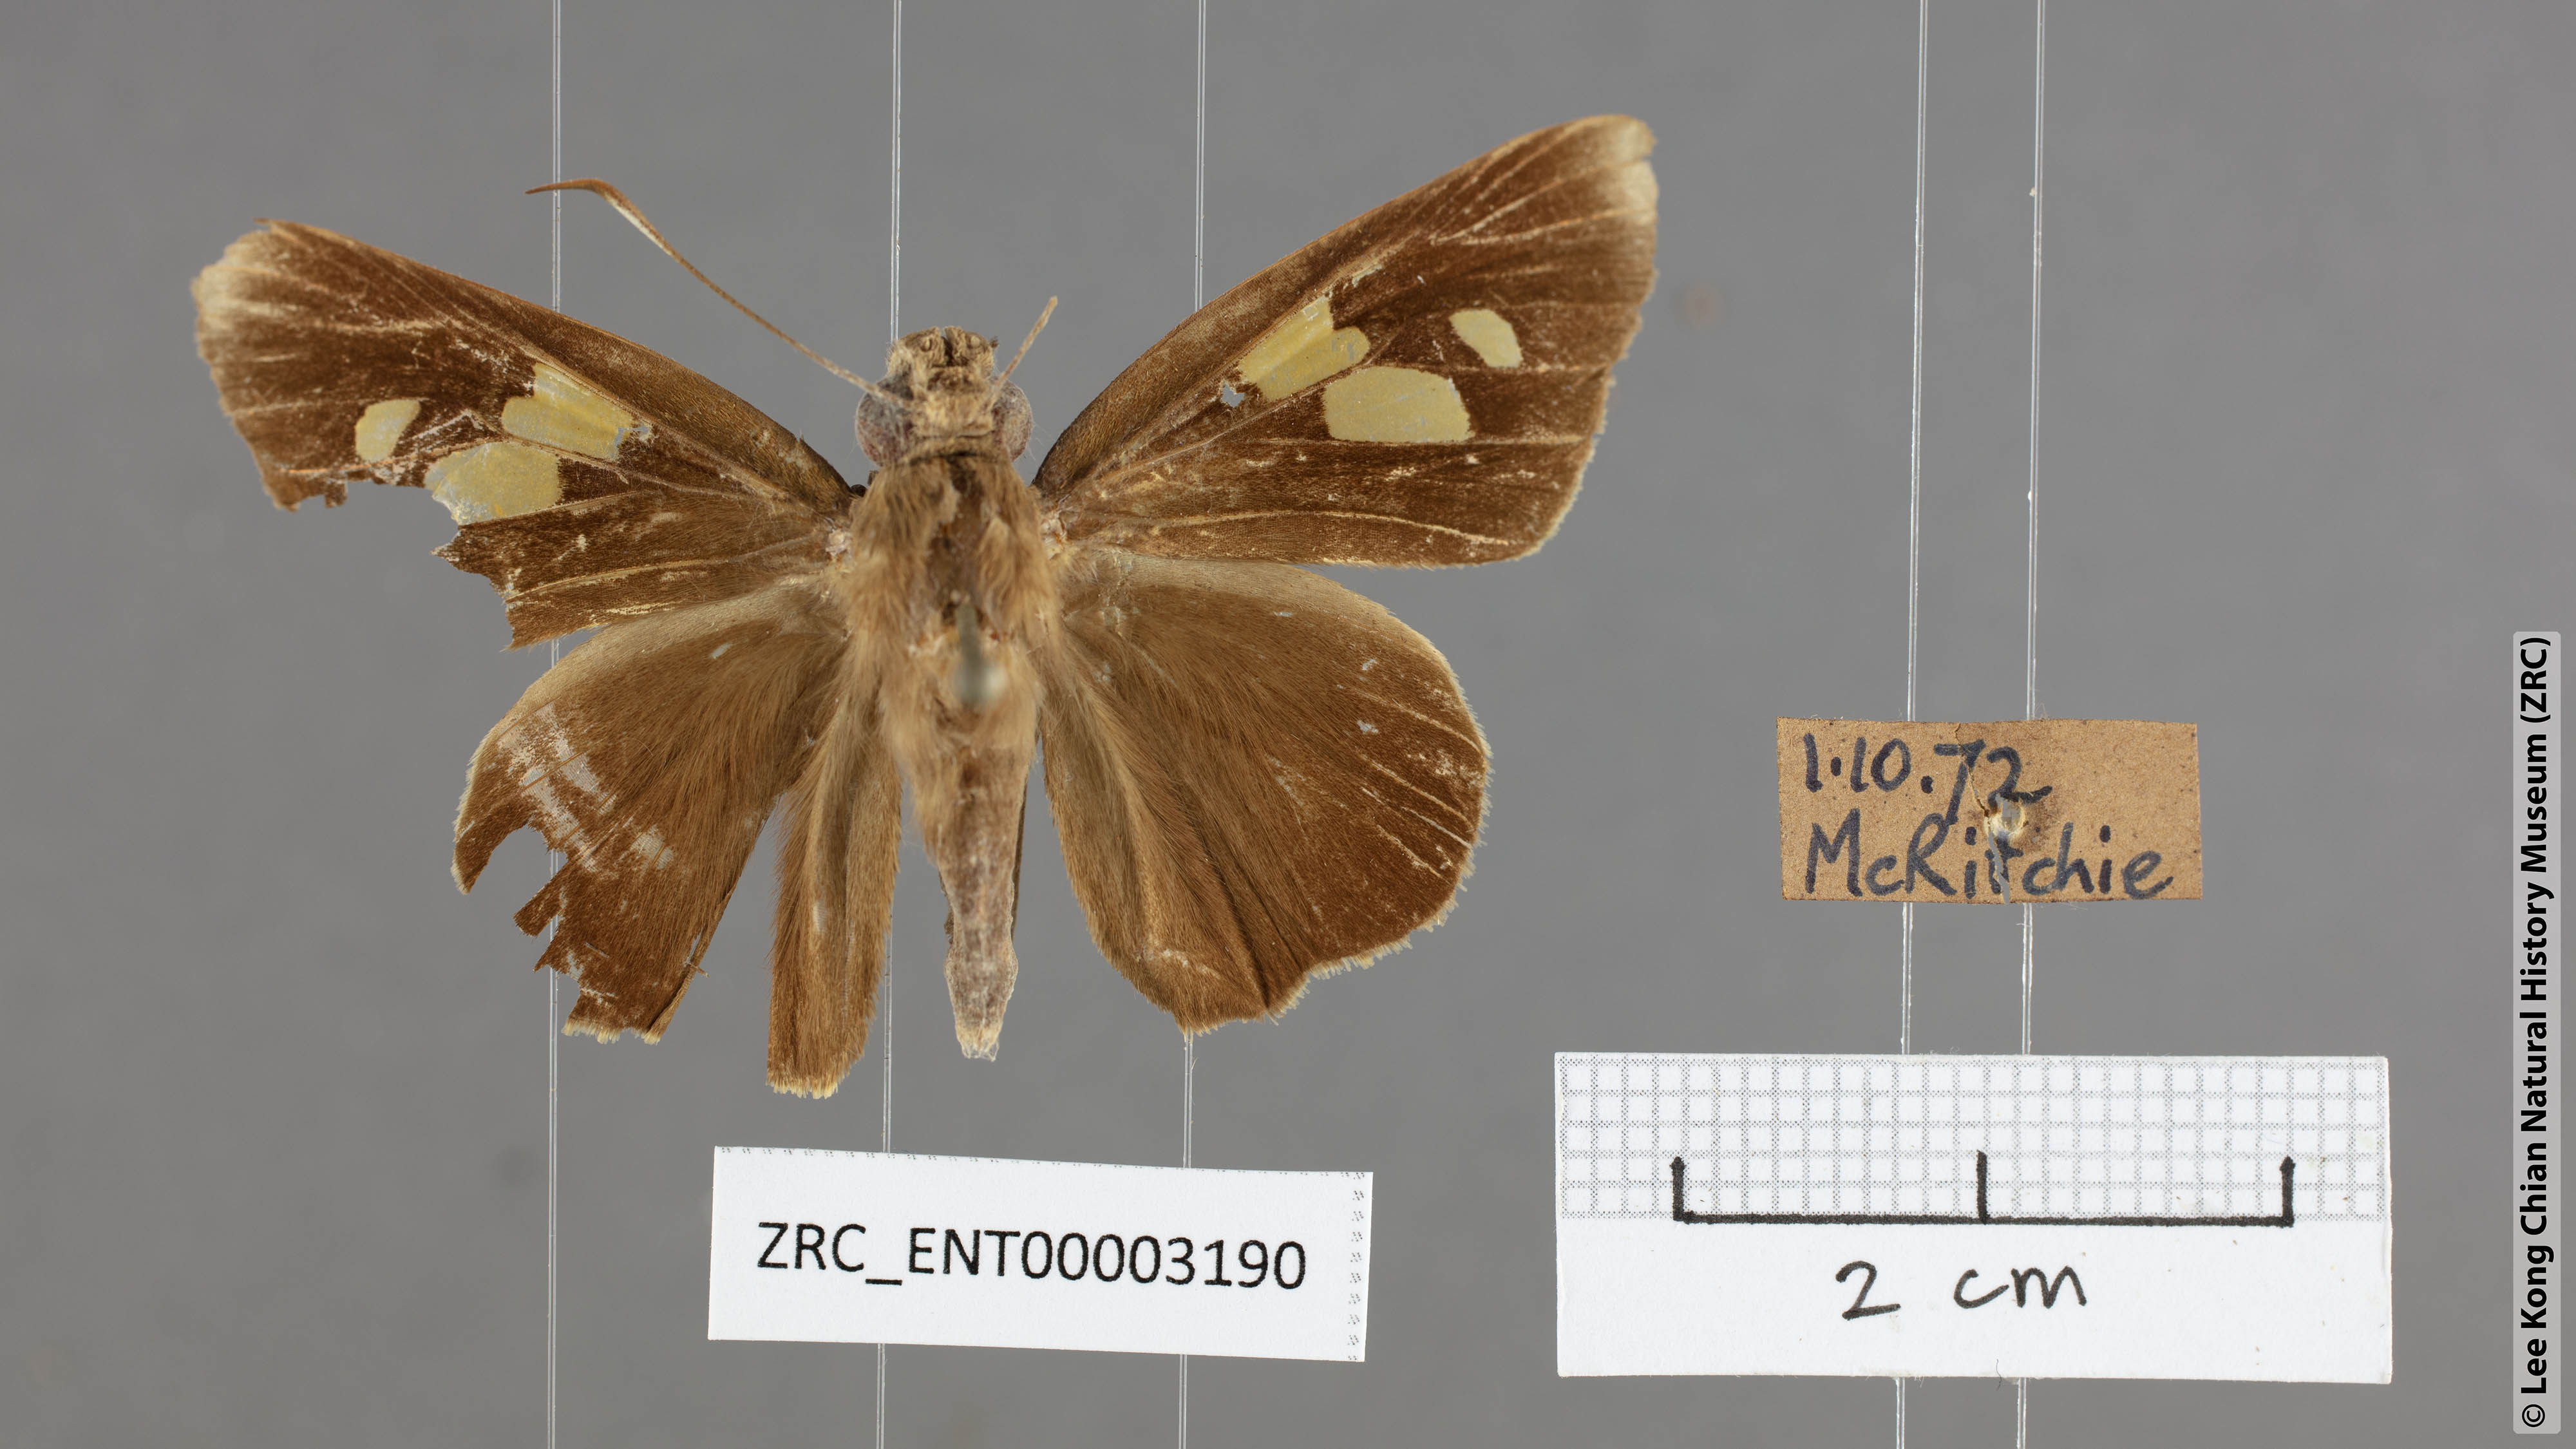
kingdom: Animalia
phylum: Arthropoda
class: Insecta
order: Lepidoptera
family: Hesperiidae
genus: Erionota
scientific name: Erionota
